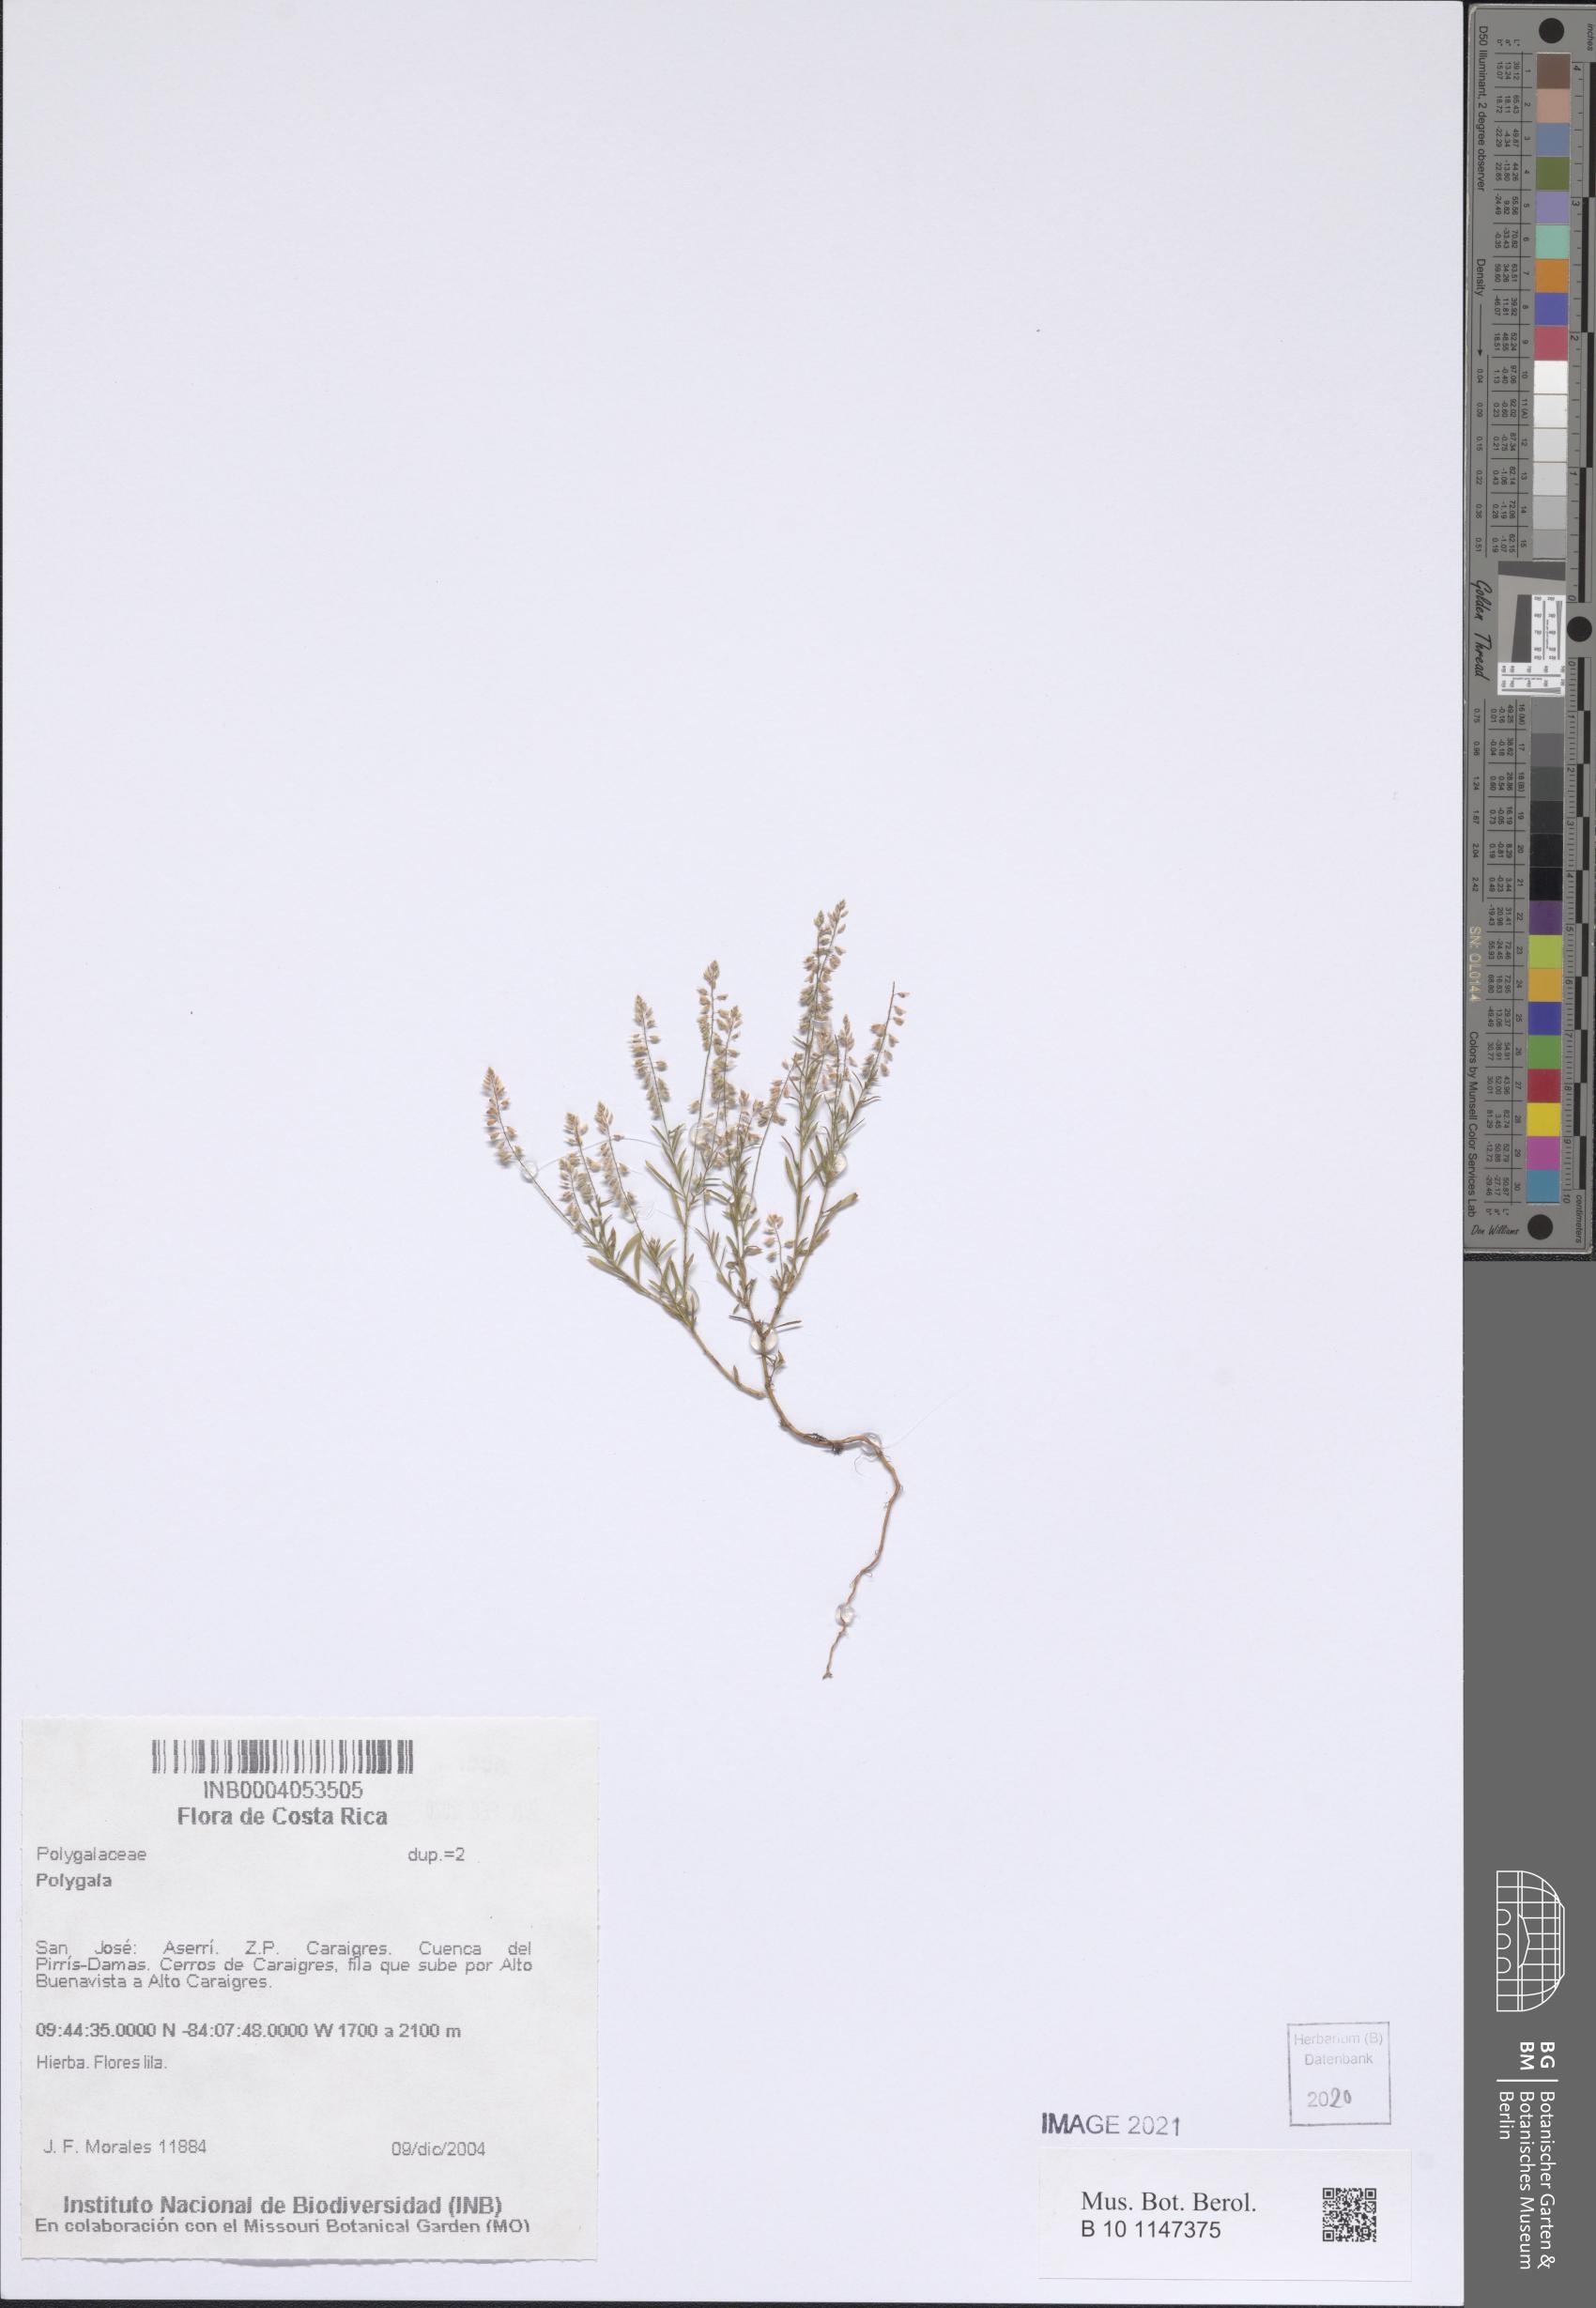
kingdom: Plantae
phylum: Tracheophyta
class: Magnoliopsida
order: Fabales
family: Polygalaceae
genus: Polygala
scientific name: Polygala
